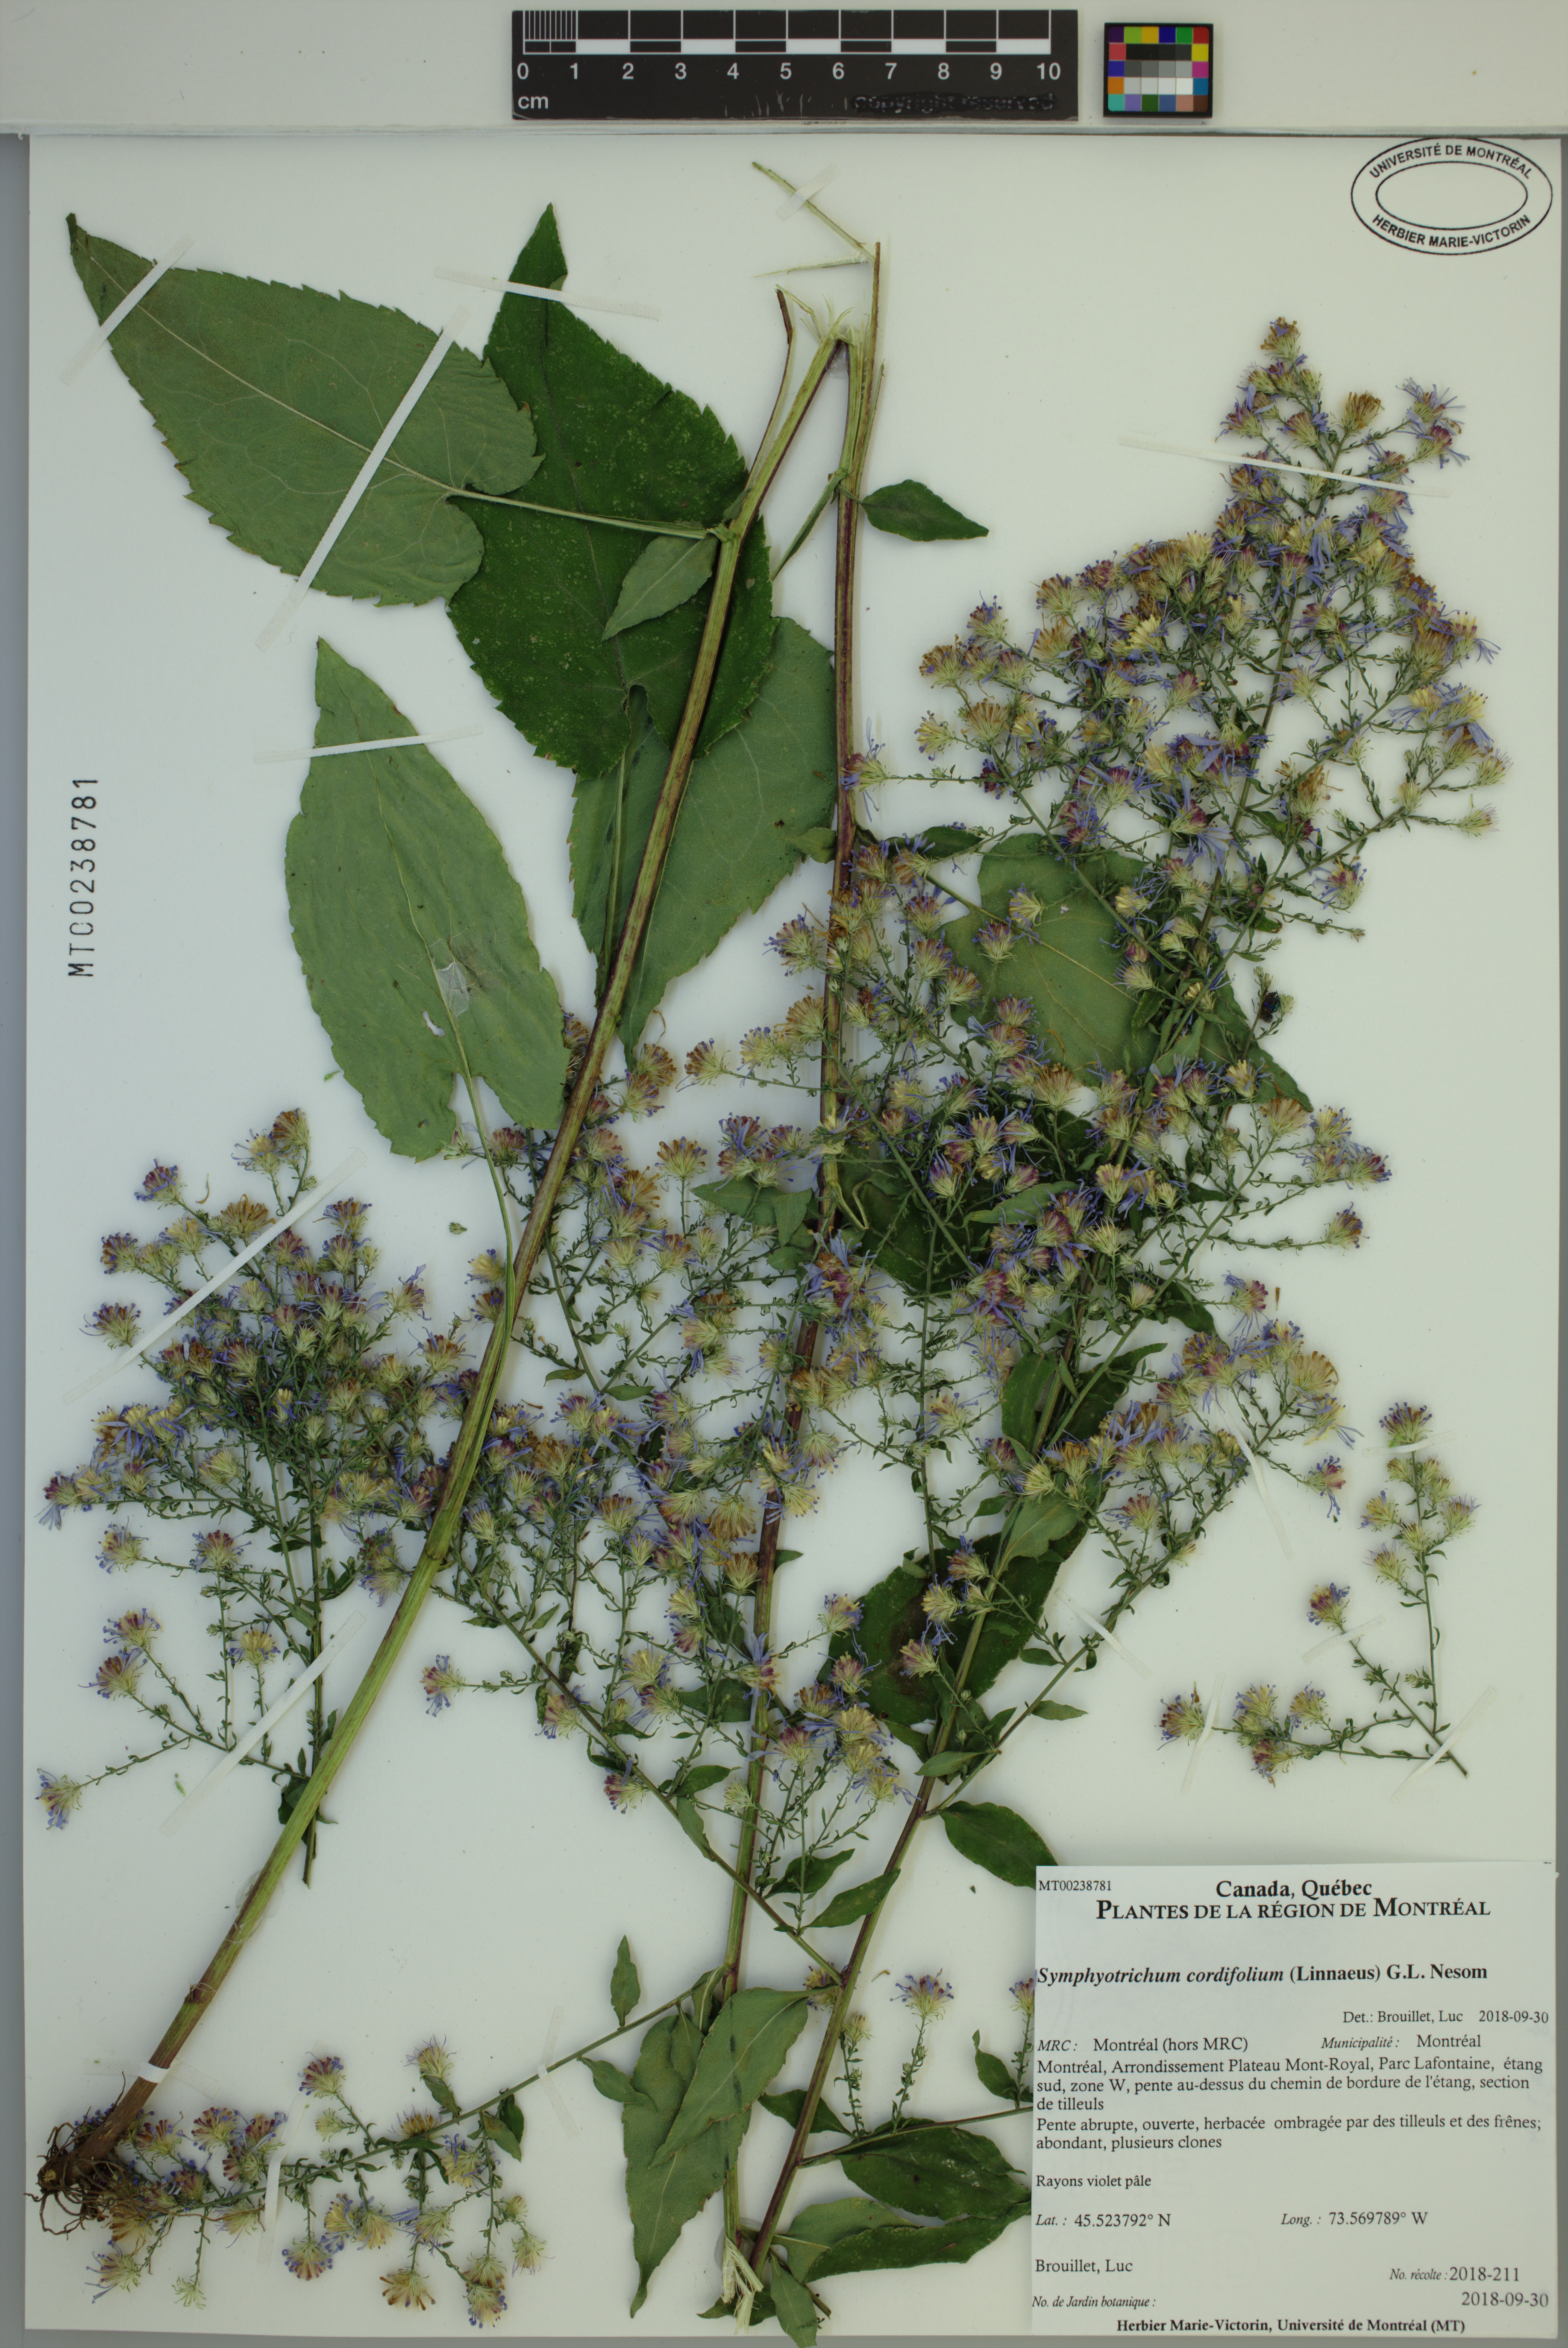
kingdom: Plantae
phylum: Tracheophyta
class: Magnoliopsida
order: Asterales
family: Asteraceae
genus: Symphyotrichum
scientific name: Symphyotrichum cordifolium
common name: Beeweed
